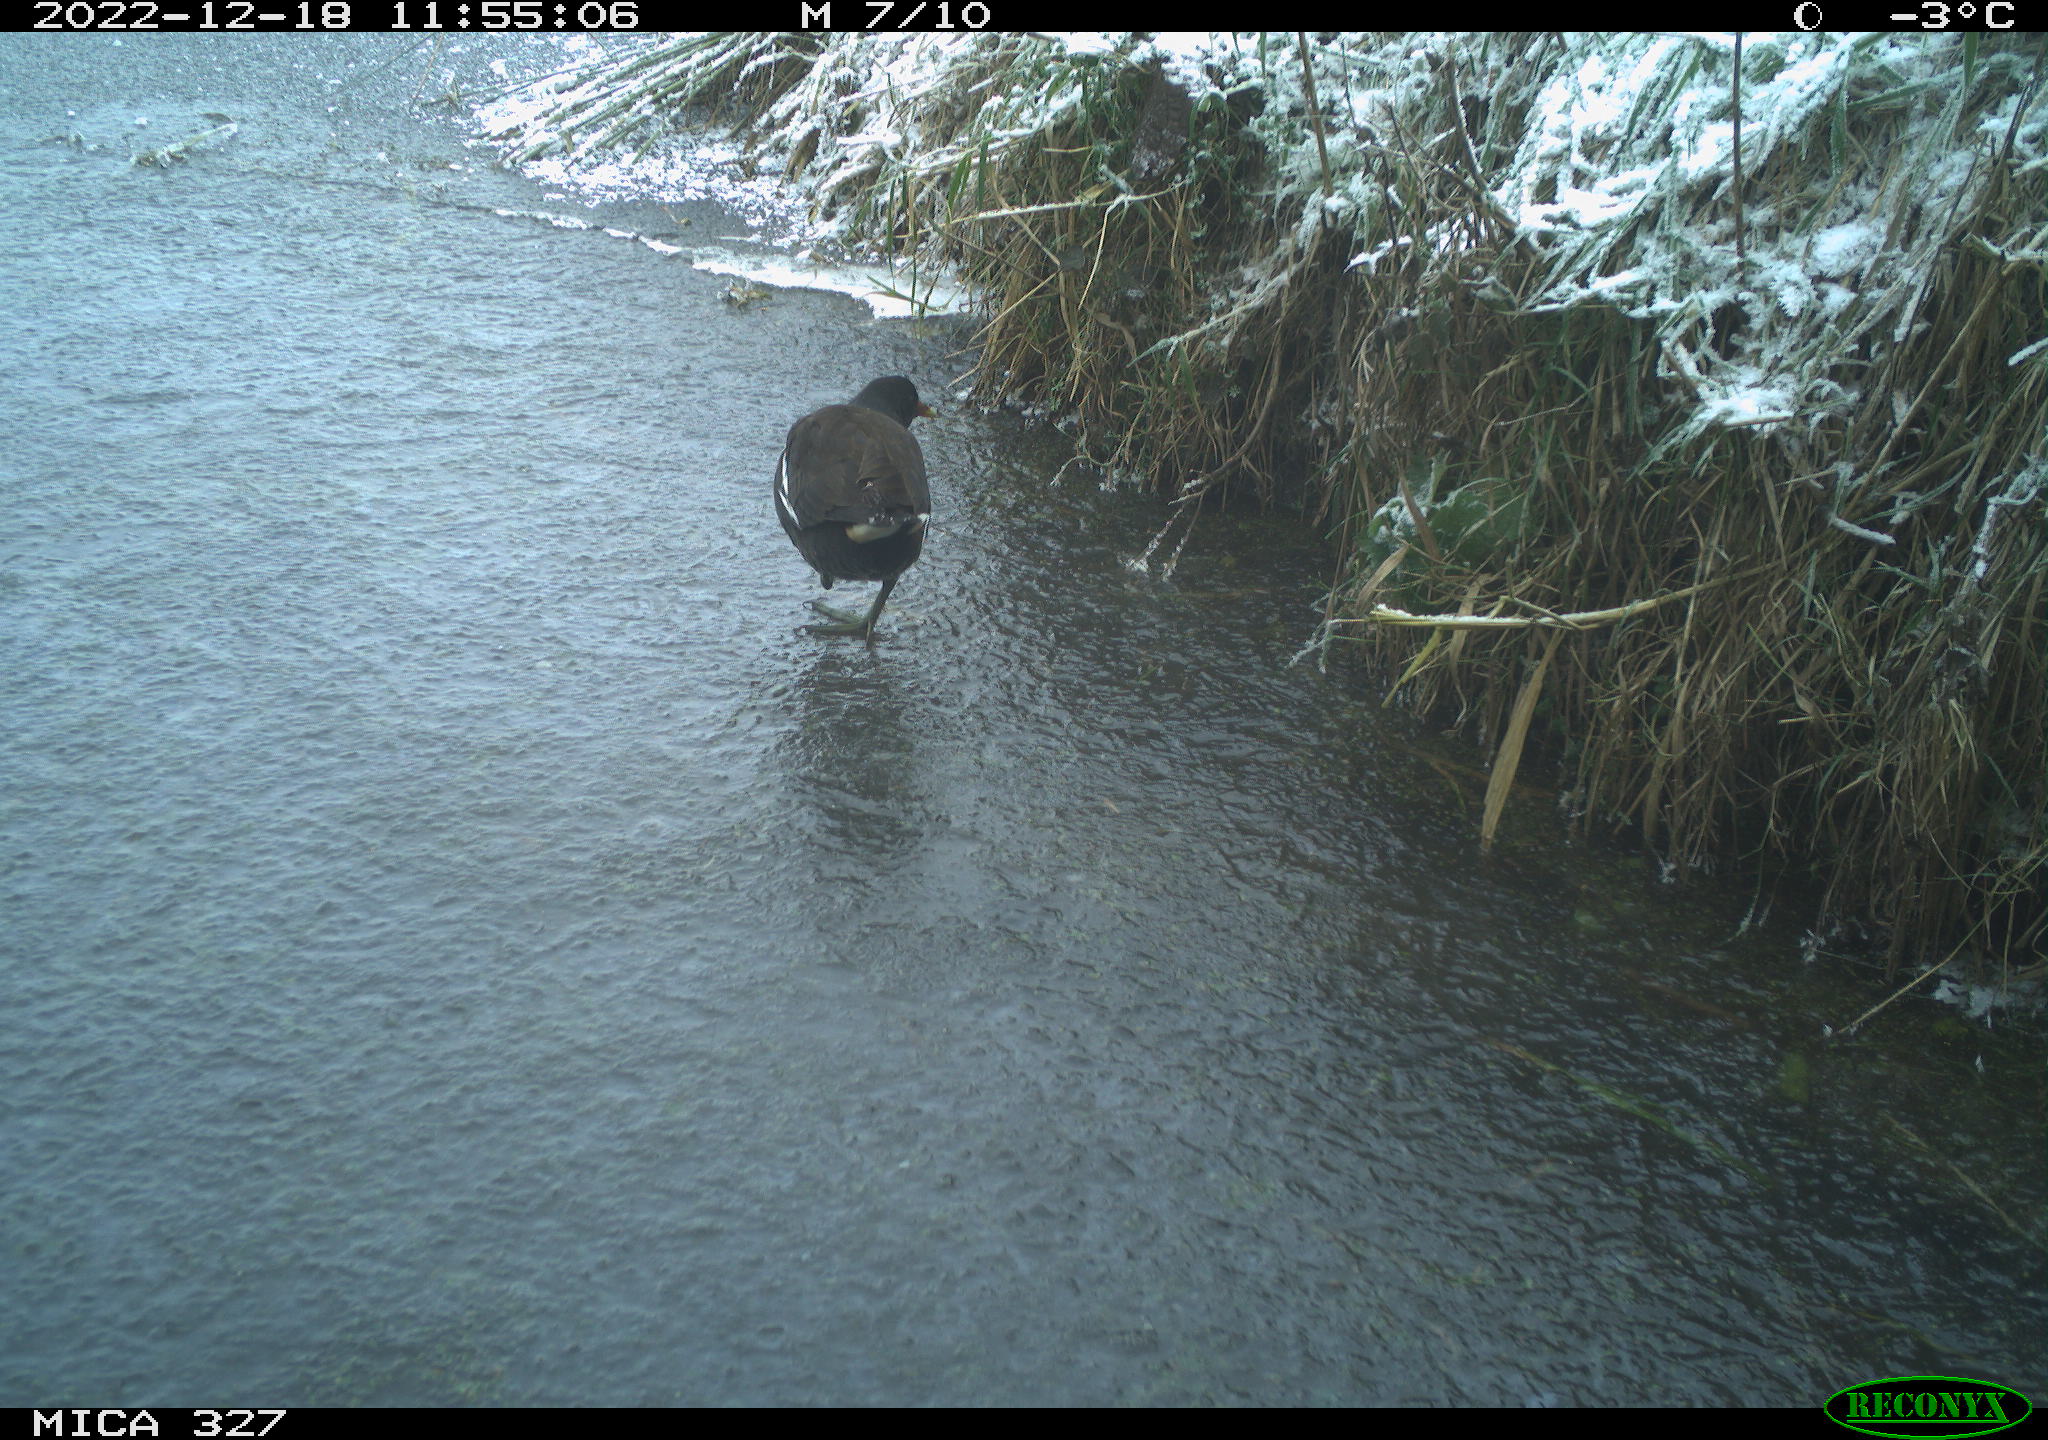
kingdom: Animalia
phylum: Chordata
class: Aves
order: Gruiformes
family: Rallidae
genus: Gallinula
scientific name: Gallinula chloropus
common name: Common moorhen
